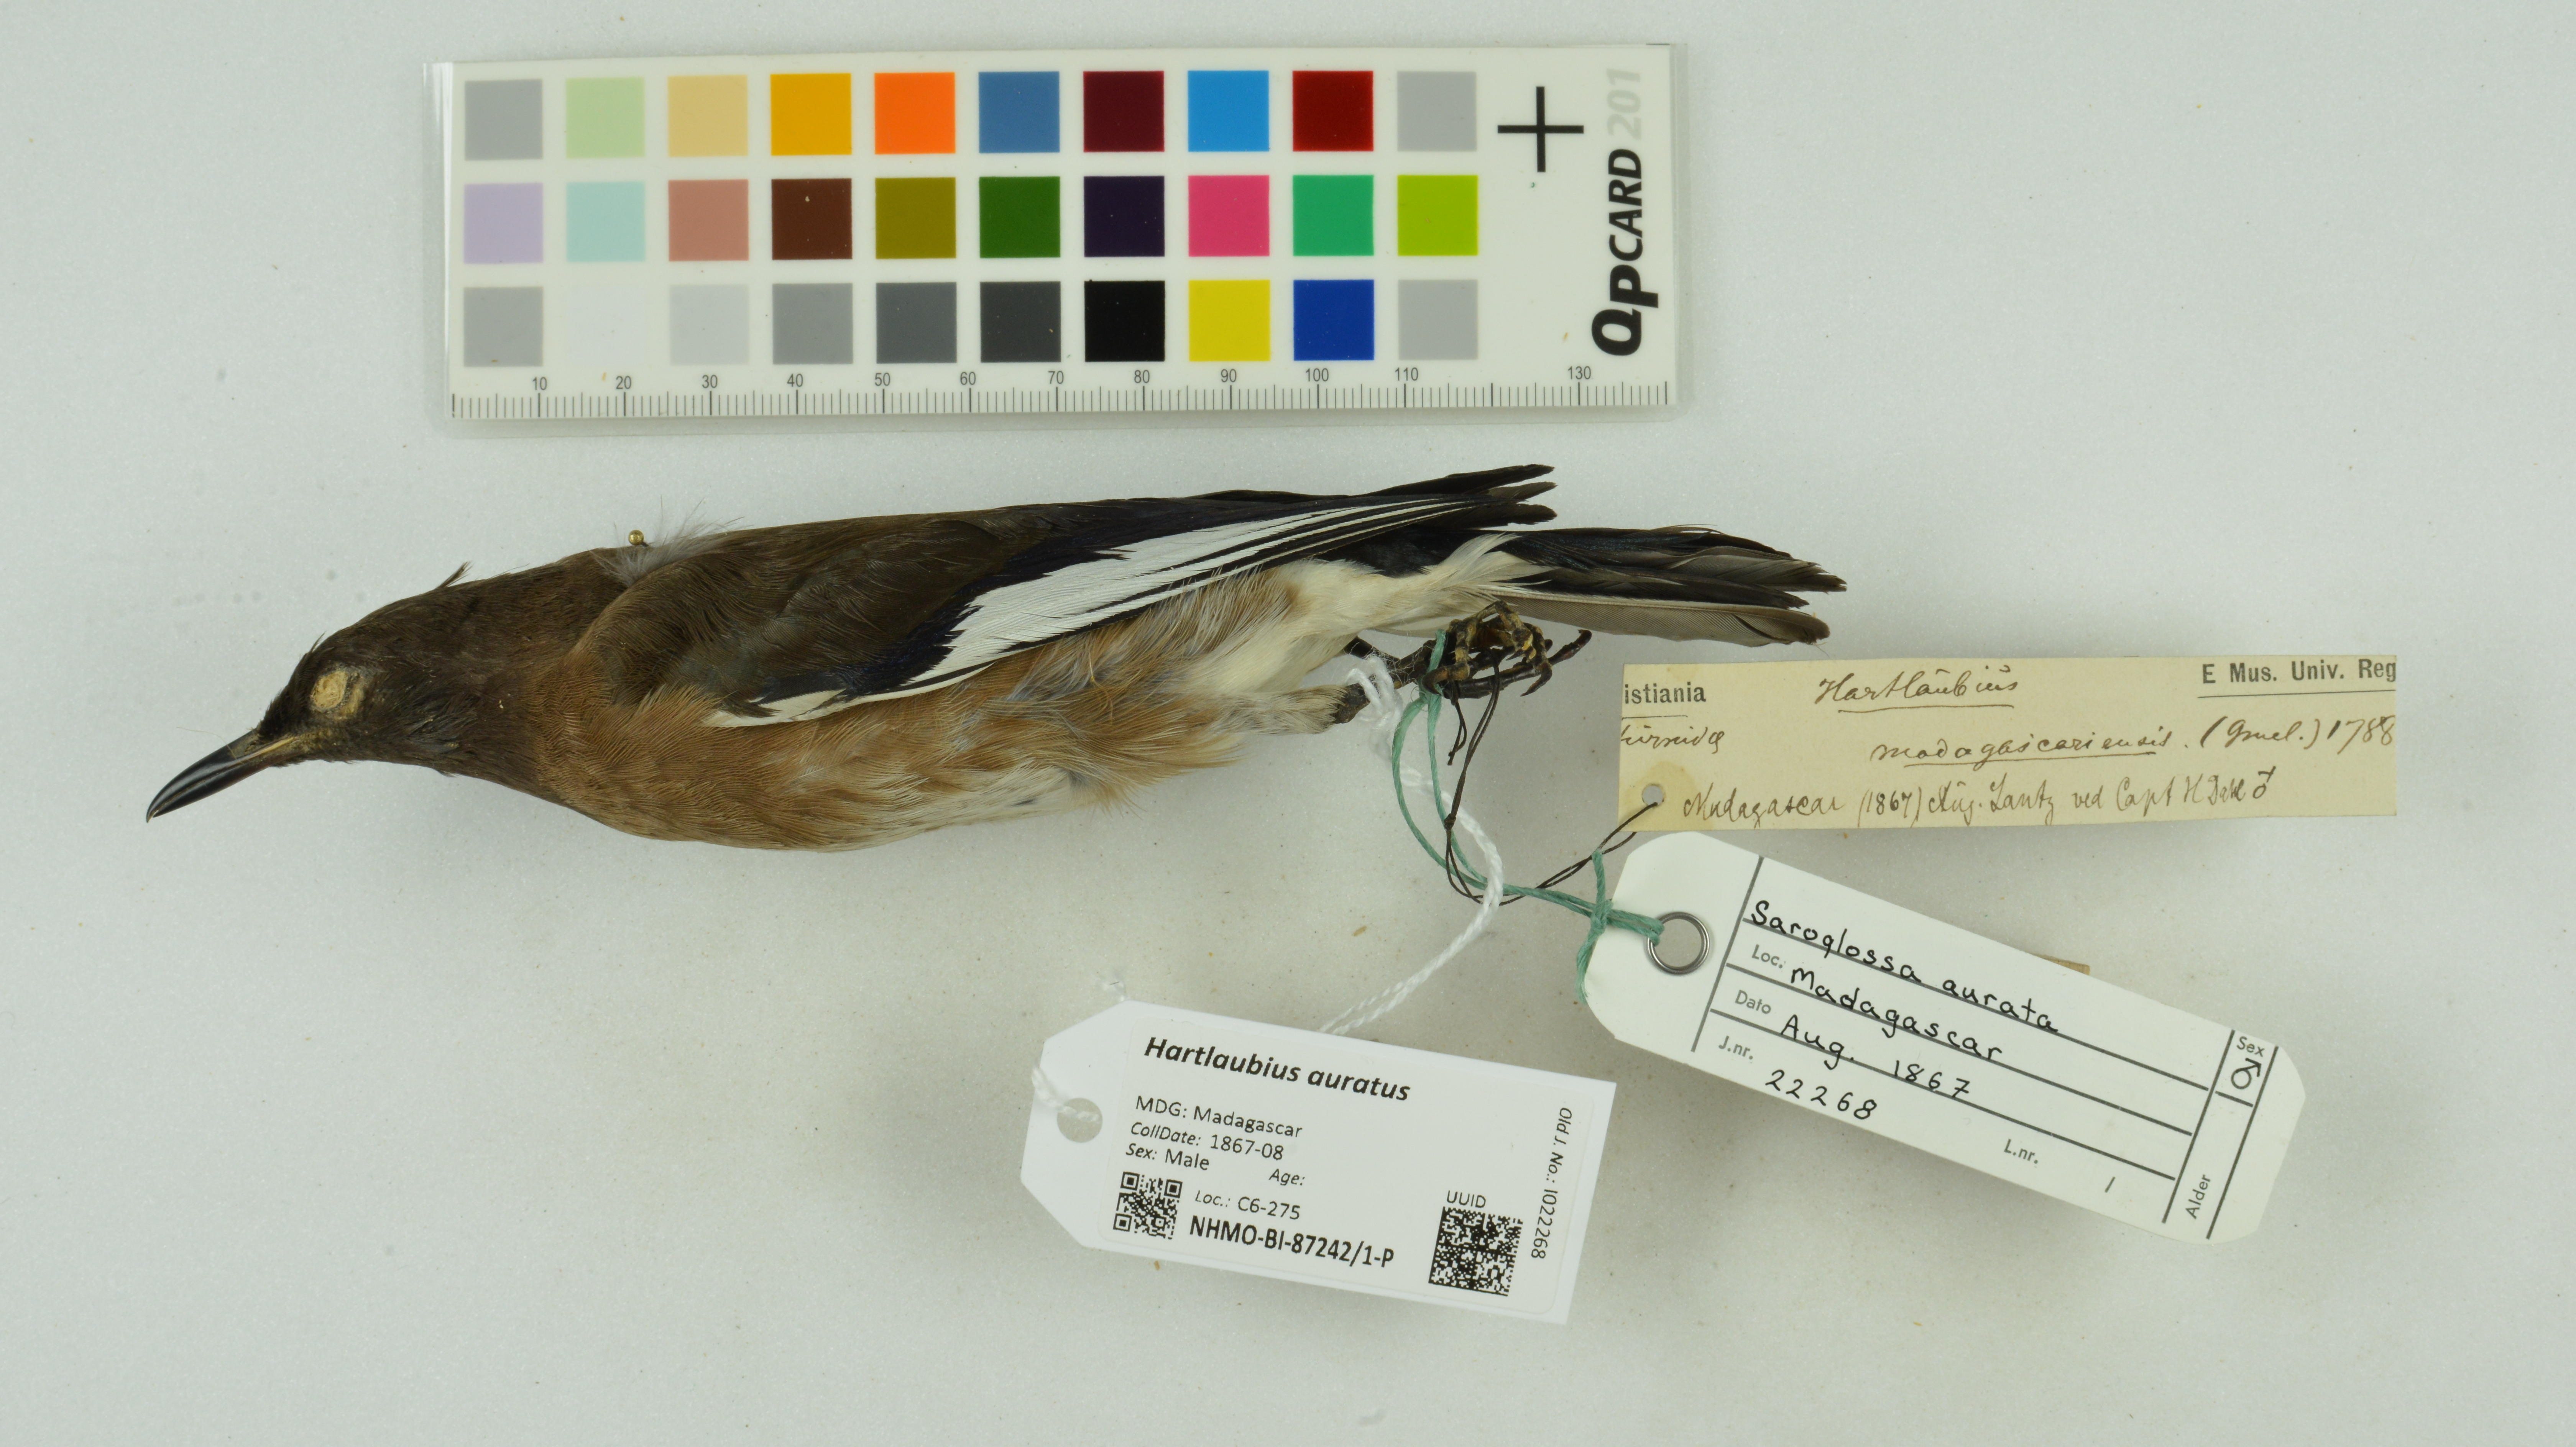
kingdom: Animalia
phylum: Chordata
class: Aves
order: Passeriformes
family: Sturnidae
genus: Hartlaubius
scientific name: Hartlaubius auratus
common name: Madagascar starling
